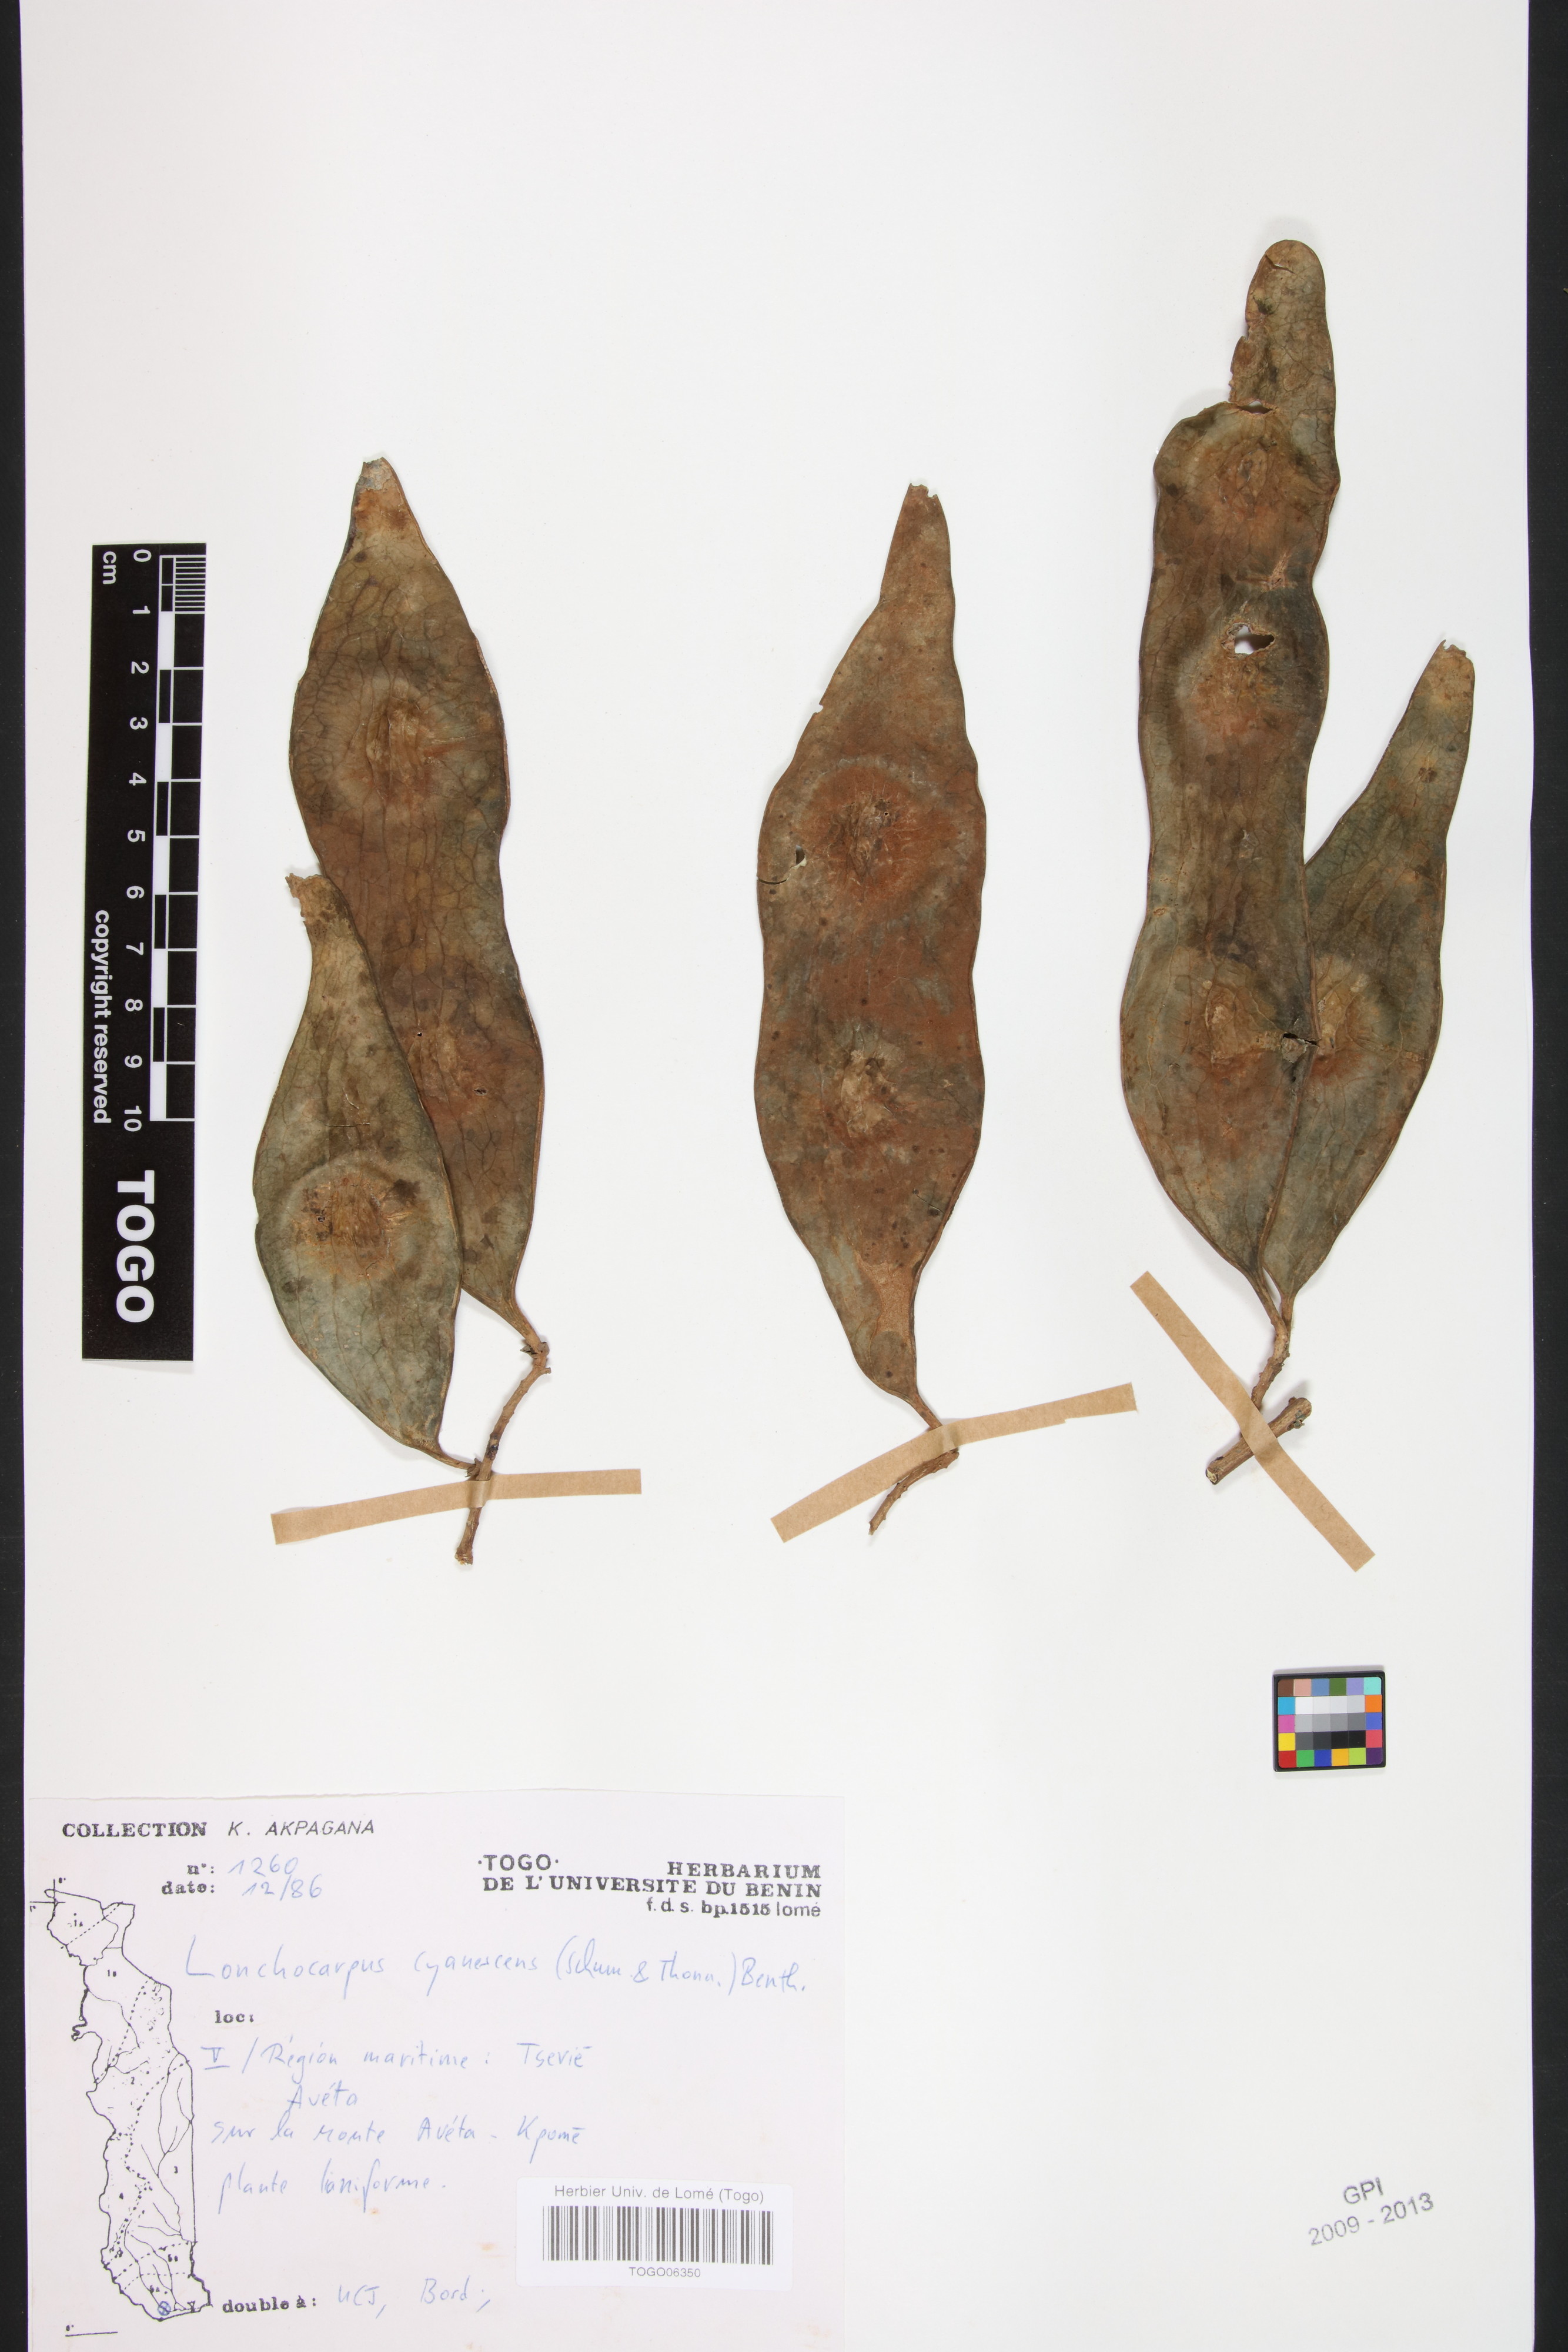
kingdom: Plantae
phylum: Tracheophyta
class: Magnoliopsida
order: Fabales
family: Fabaceae
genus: Philenoptera
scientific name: Philenoptera cyanescens
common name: West african-indigo
